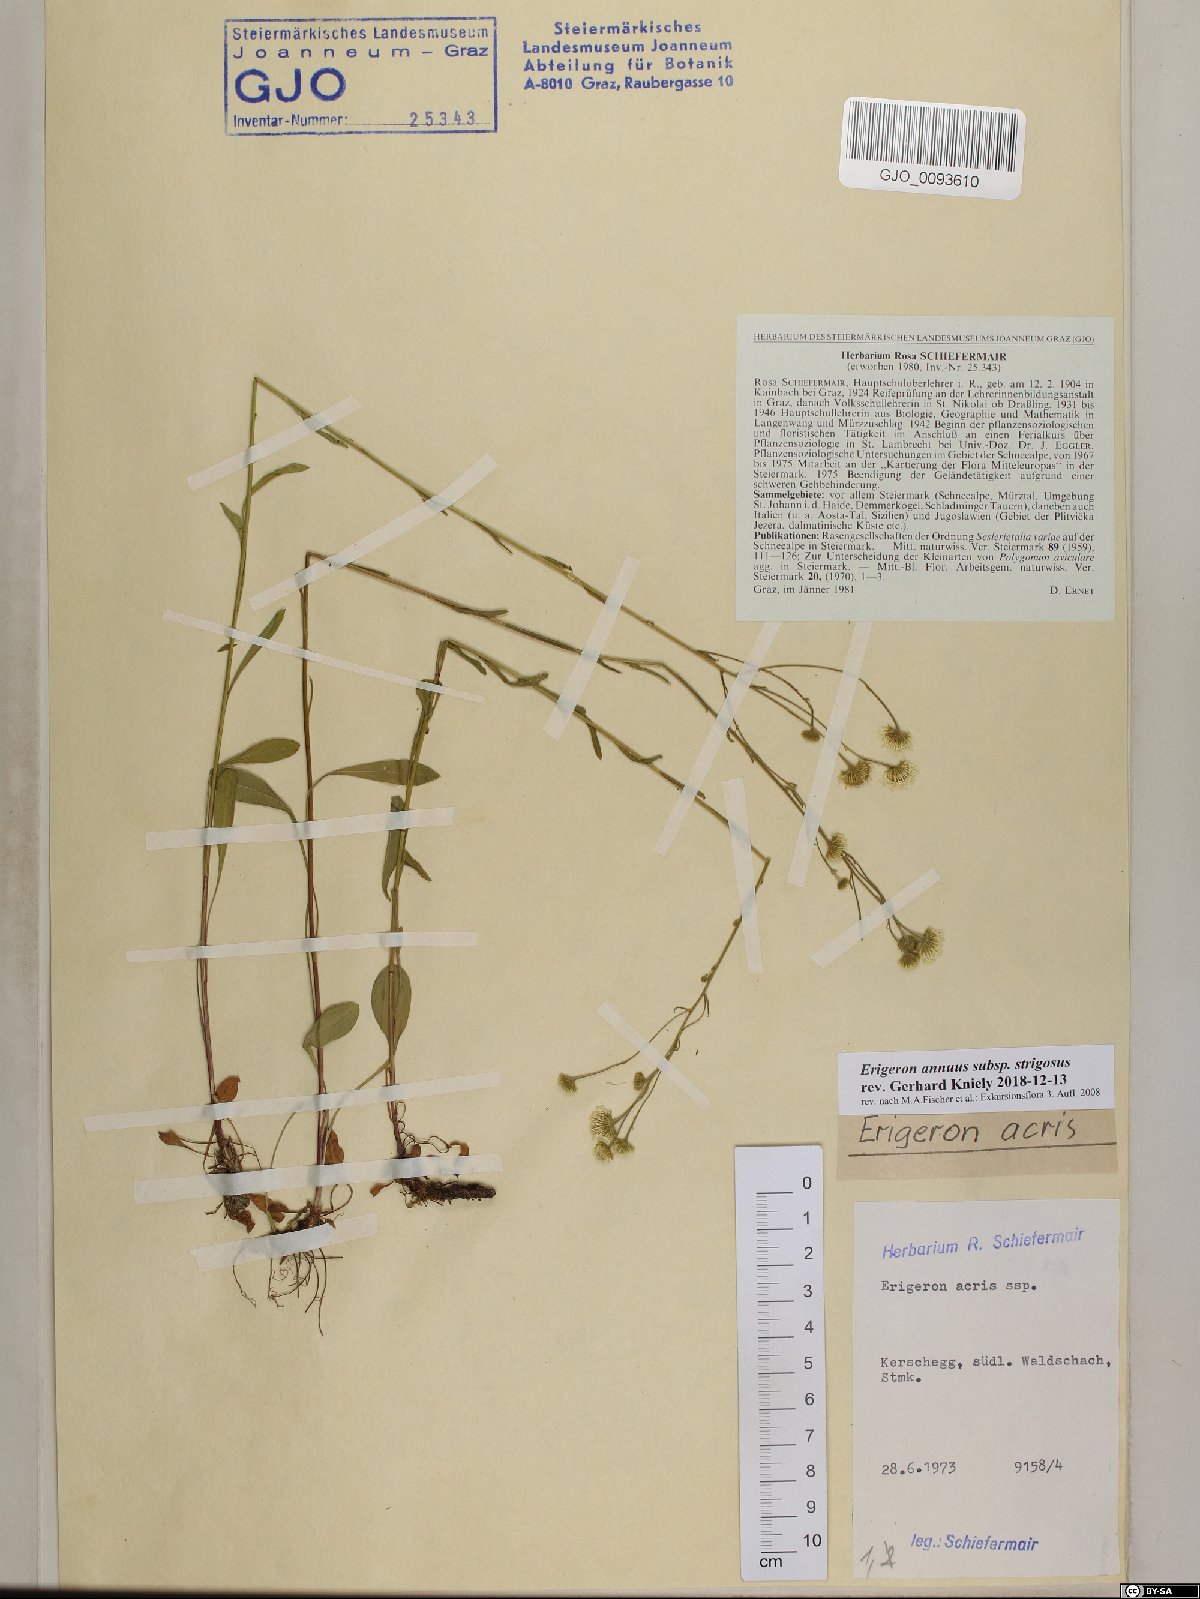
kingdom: Plantae
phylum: Tracheophyta
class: Magnoliopsida
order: Asterales
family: Asteraceae
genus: Erigeron
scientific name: Erigeron strigosus
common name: Common eastern fleabane
